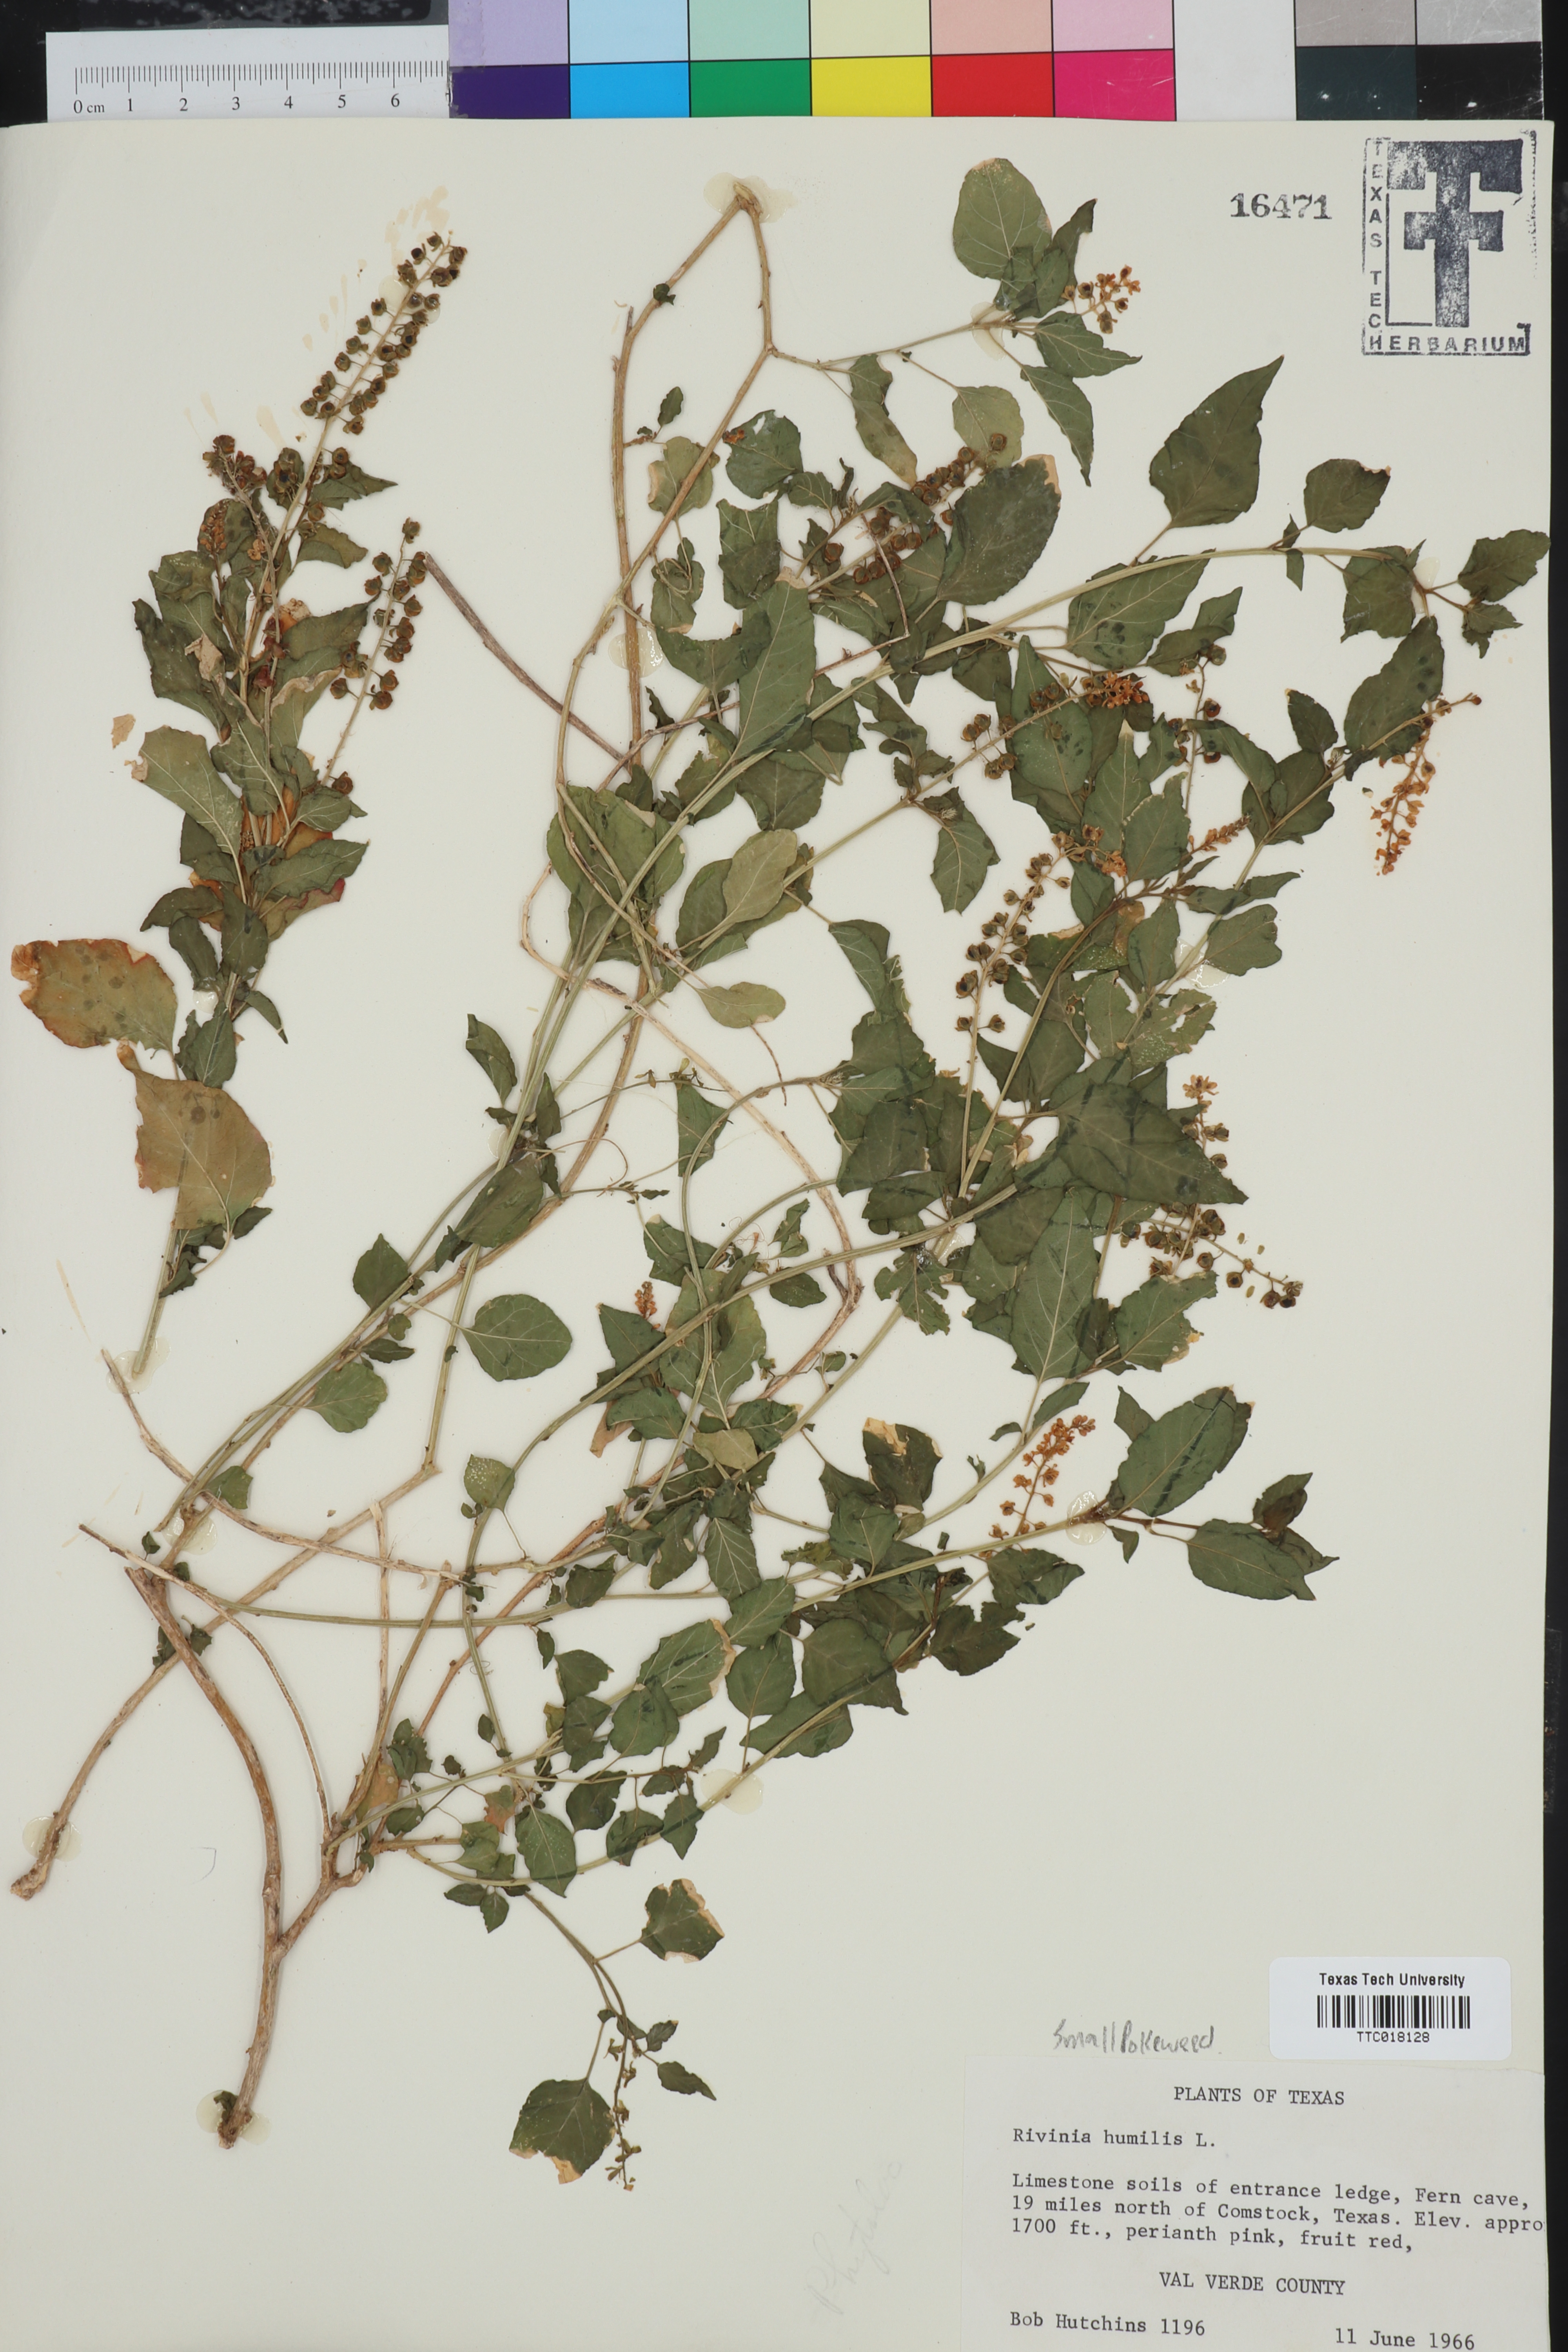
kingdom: Plantae
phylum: Tracheophyta
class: Magnoliopsida
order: Caryophyllales
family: Phytolaccaceae
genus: Rivina
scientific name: Rivina humilis
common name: Rougeplant
